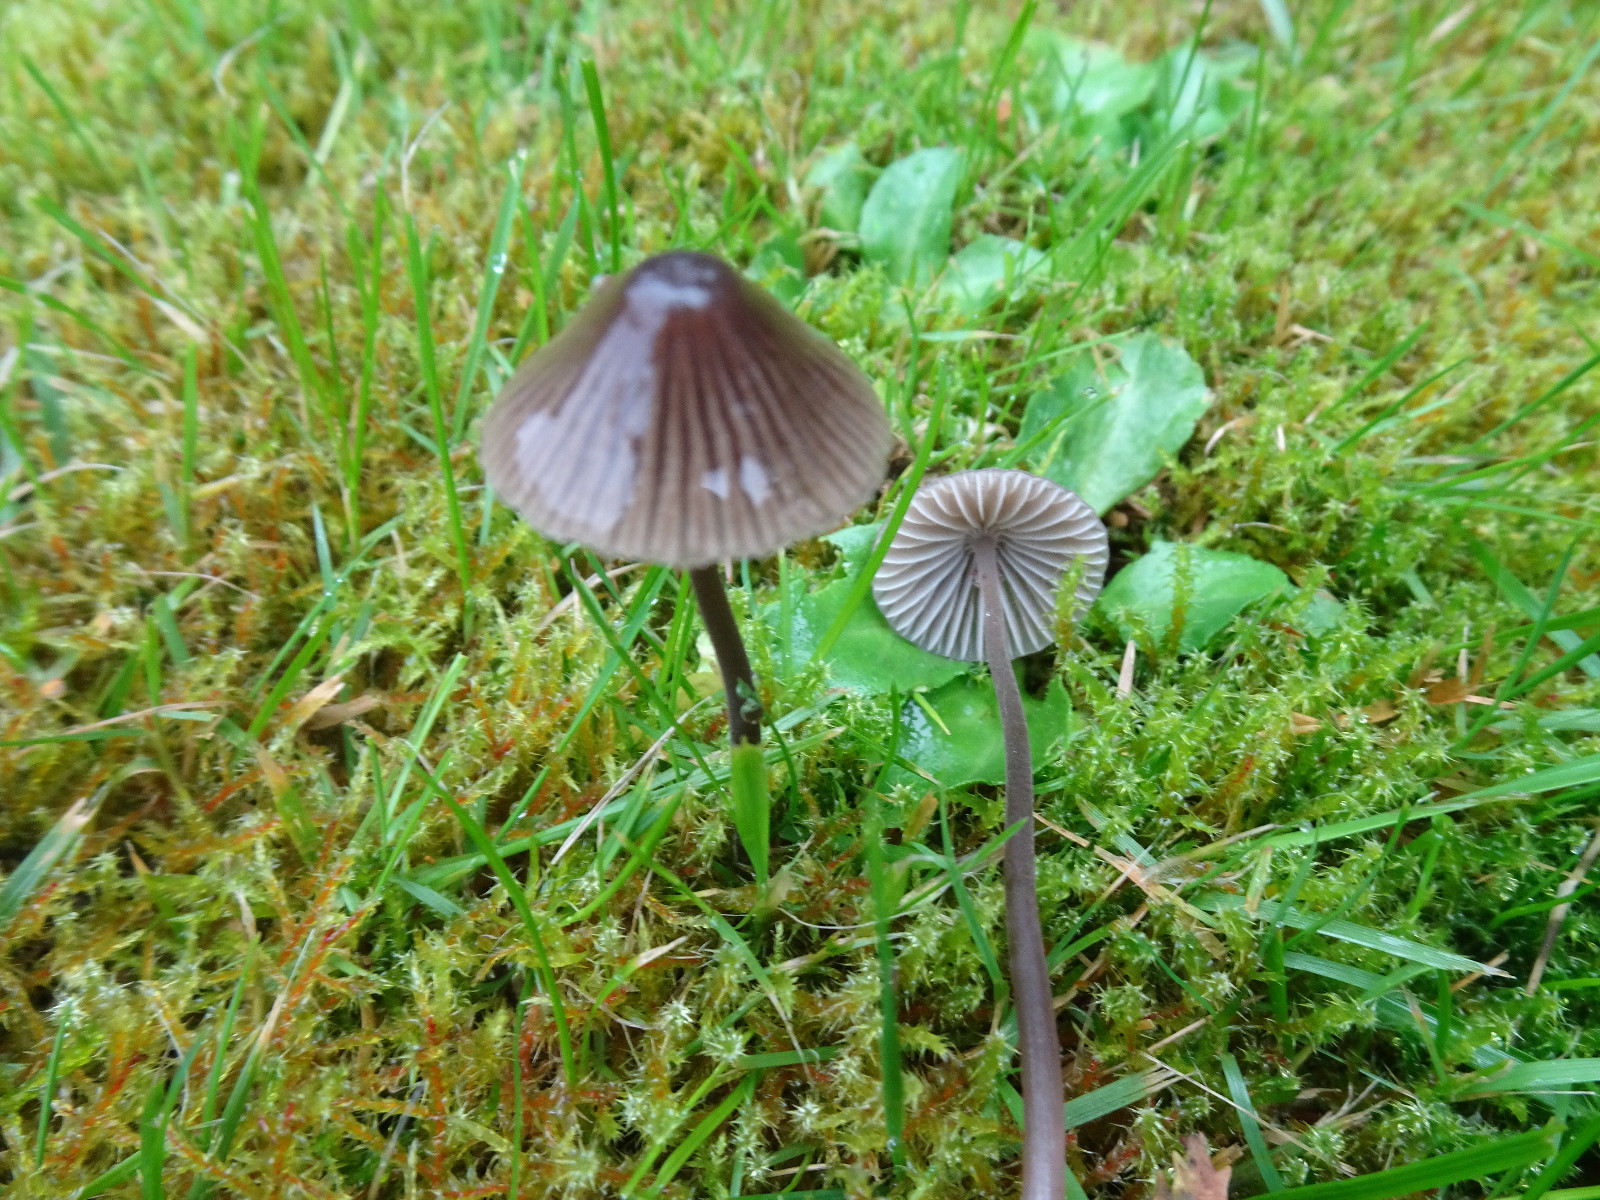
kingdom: Fungi
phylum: Basidiomycota
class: Agaricomycetes
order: Agaricales
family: Mycenaceae
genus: Mycena
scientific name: Mycena leptocephala
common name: klor-huesvamp
